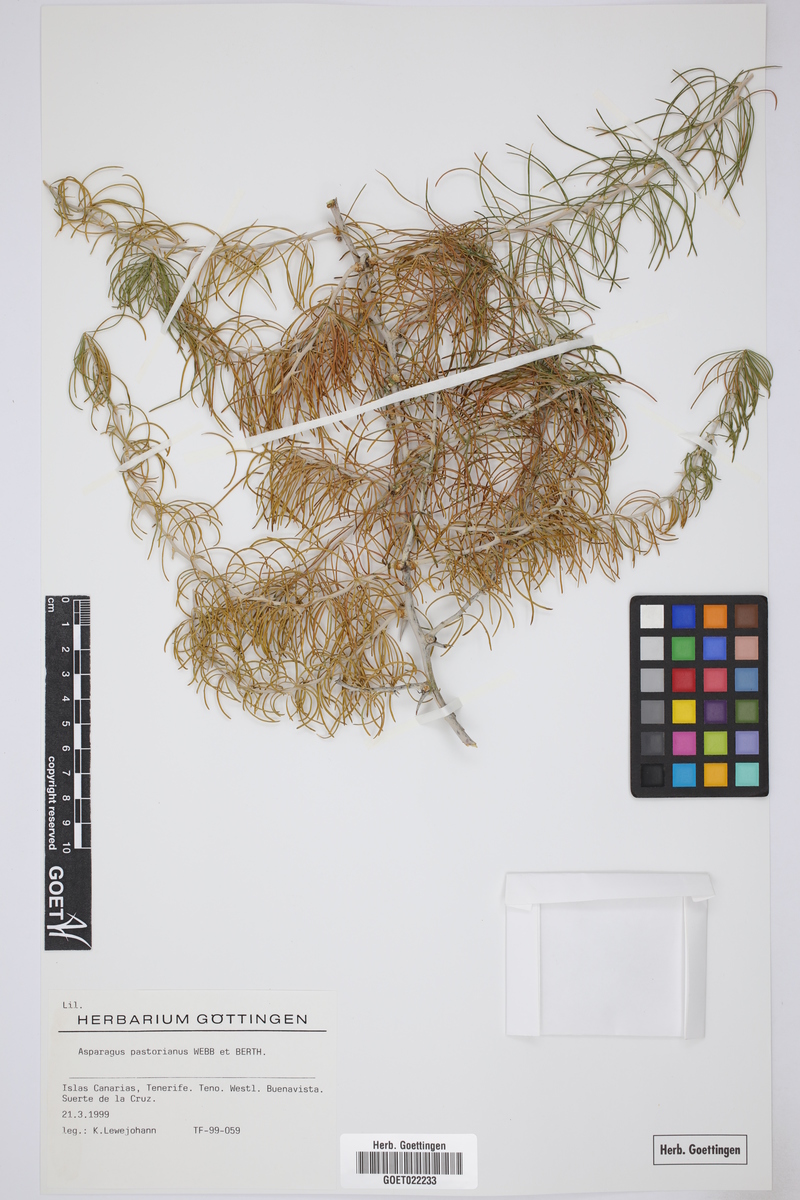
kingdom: Plantae
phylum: Tracheophyta
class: Liliopsida
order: Asparagales
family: Asparagaceae
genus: Asparagus
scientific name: Asparagus pastorianus
